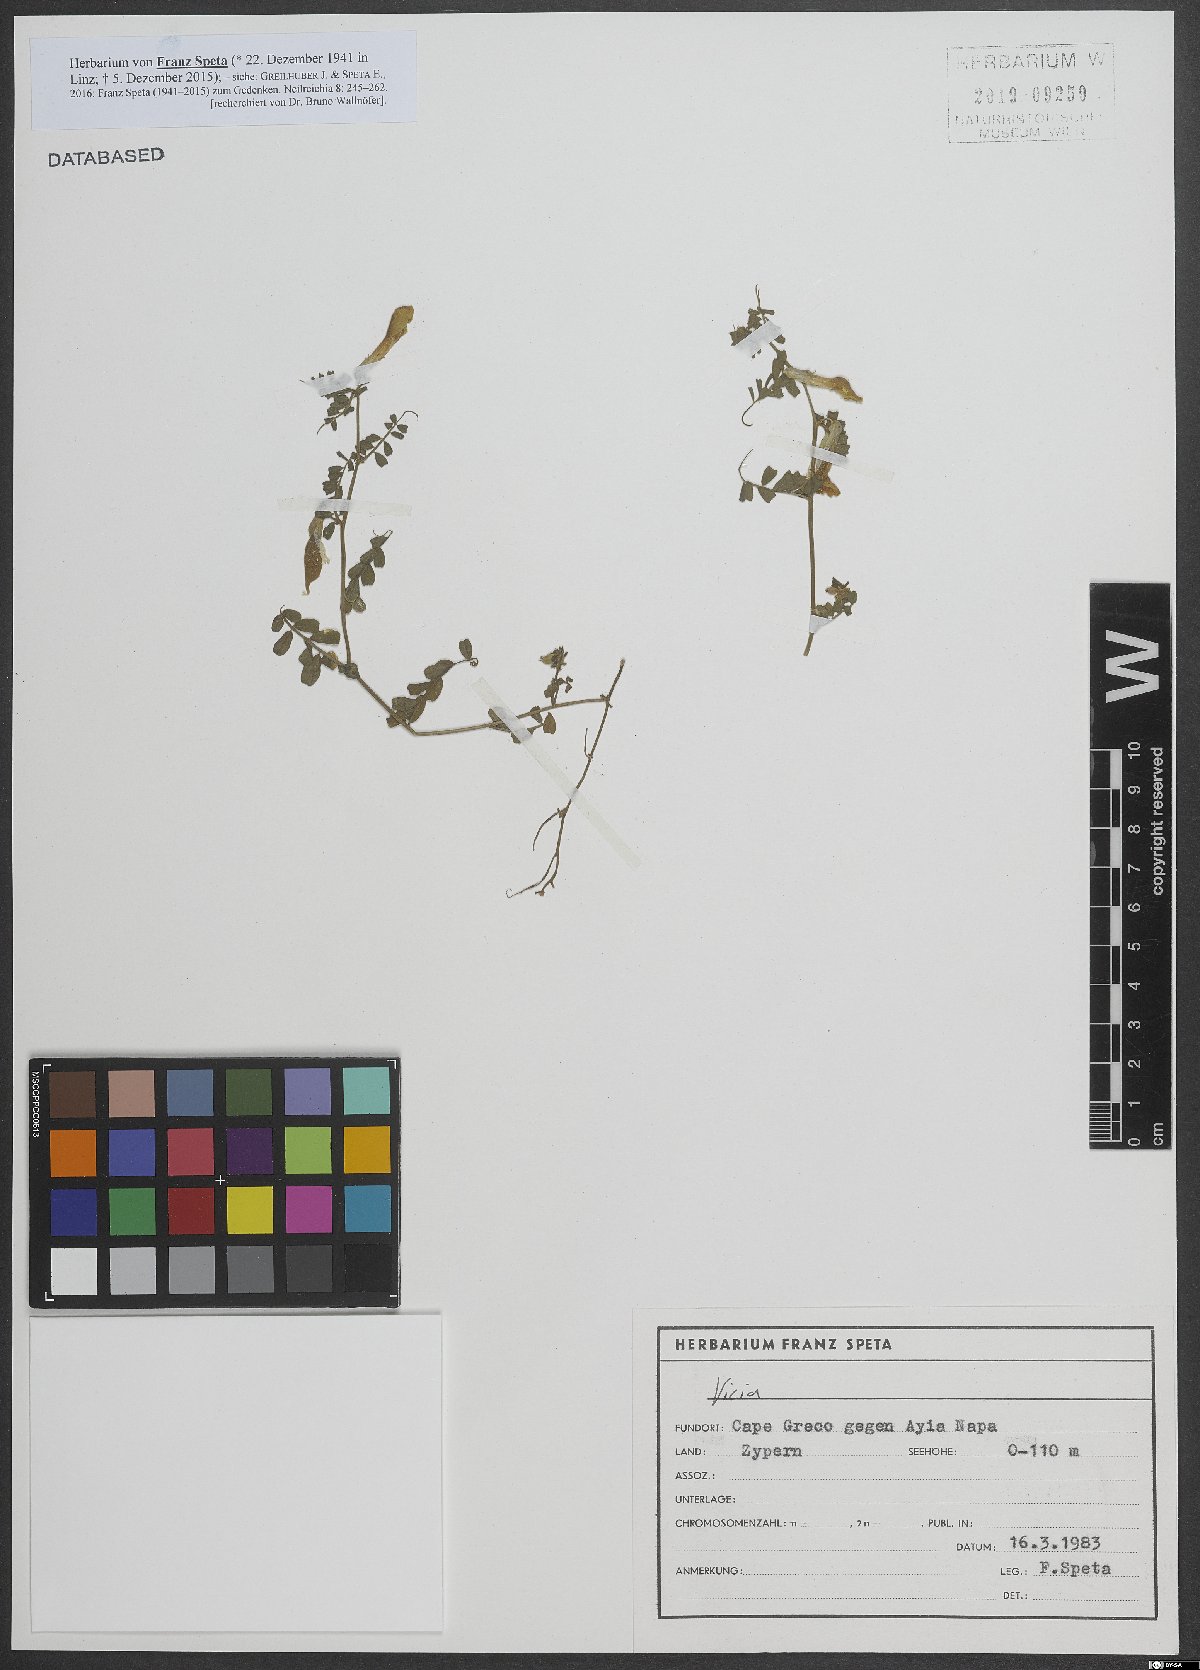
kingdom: Plantae
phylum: Tracheophyta
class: Magnoliopsida
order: Fabales
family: Fabaceae
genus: Vicia
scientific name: Vicia
